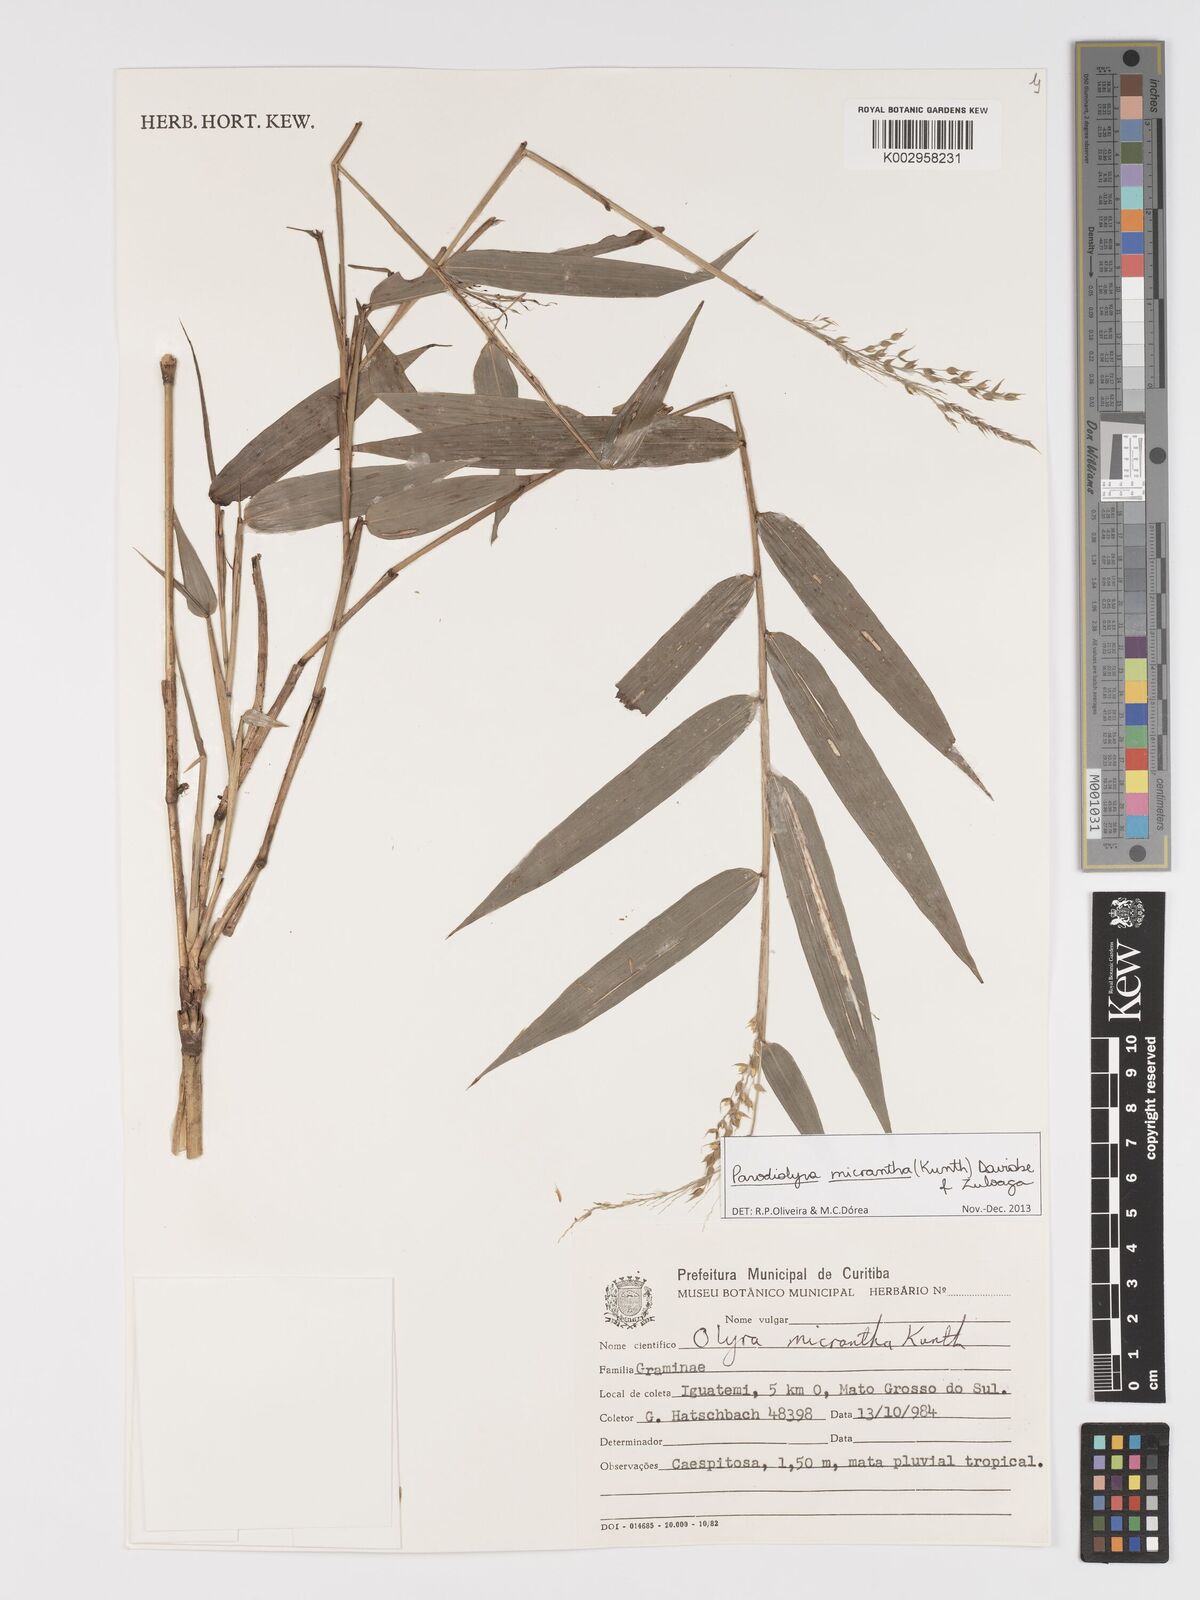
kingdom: Plantae
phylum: Tracheophyta
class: Liliopsida
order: Poales
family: Poaceae
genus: Taquara
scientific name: Taquara micrantha
